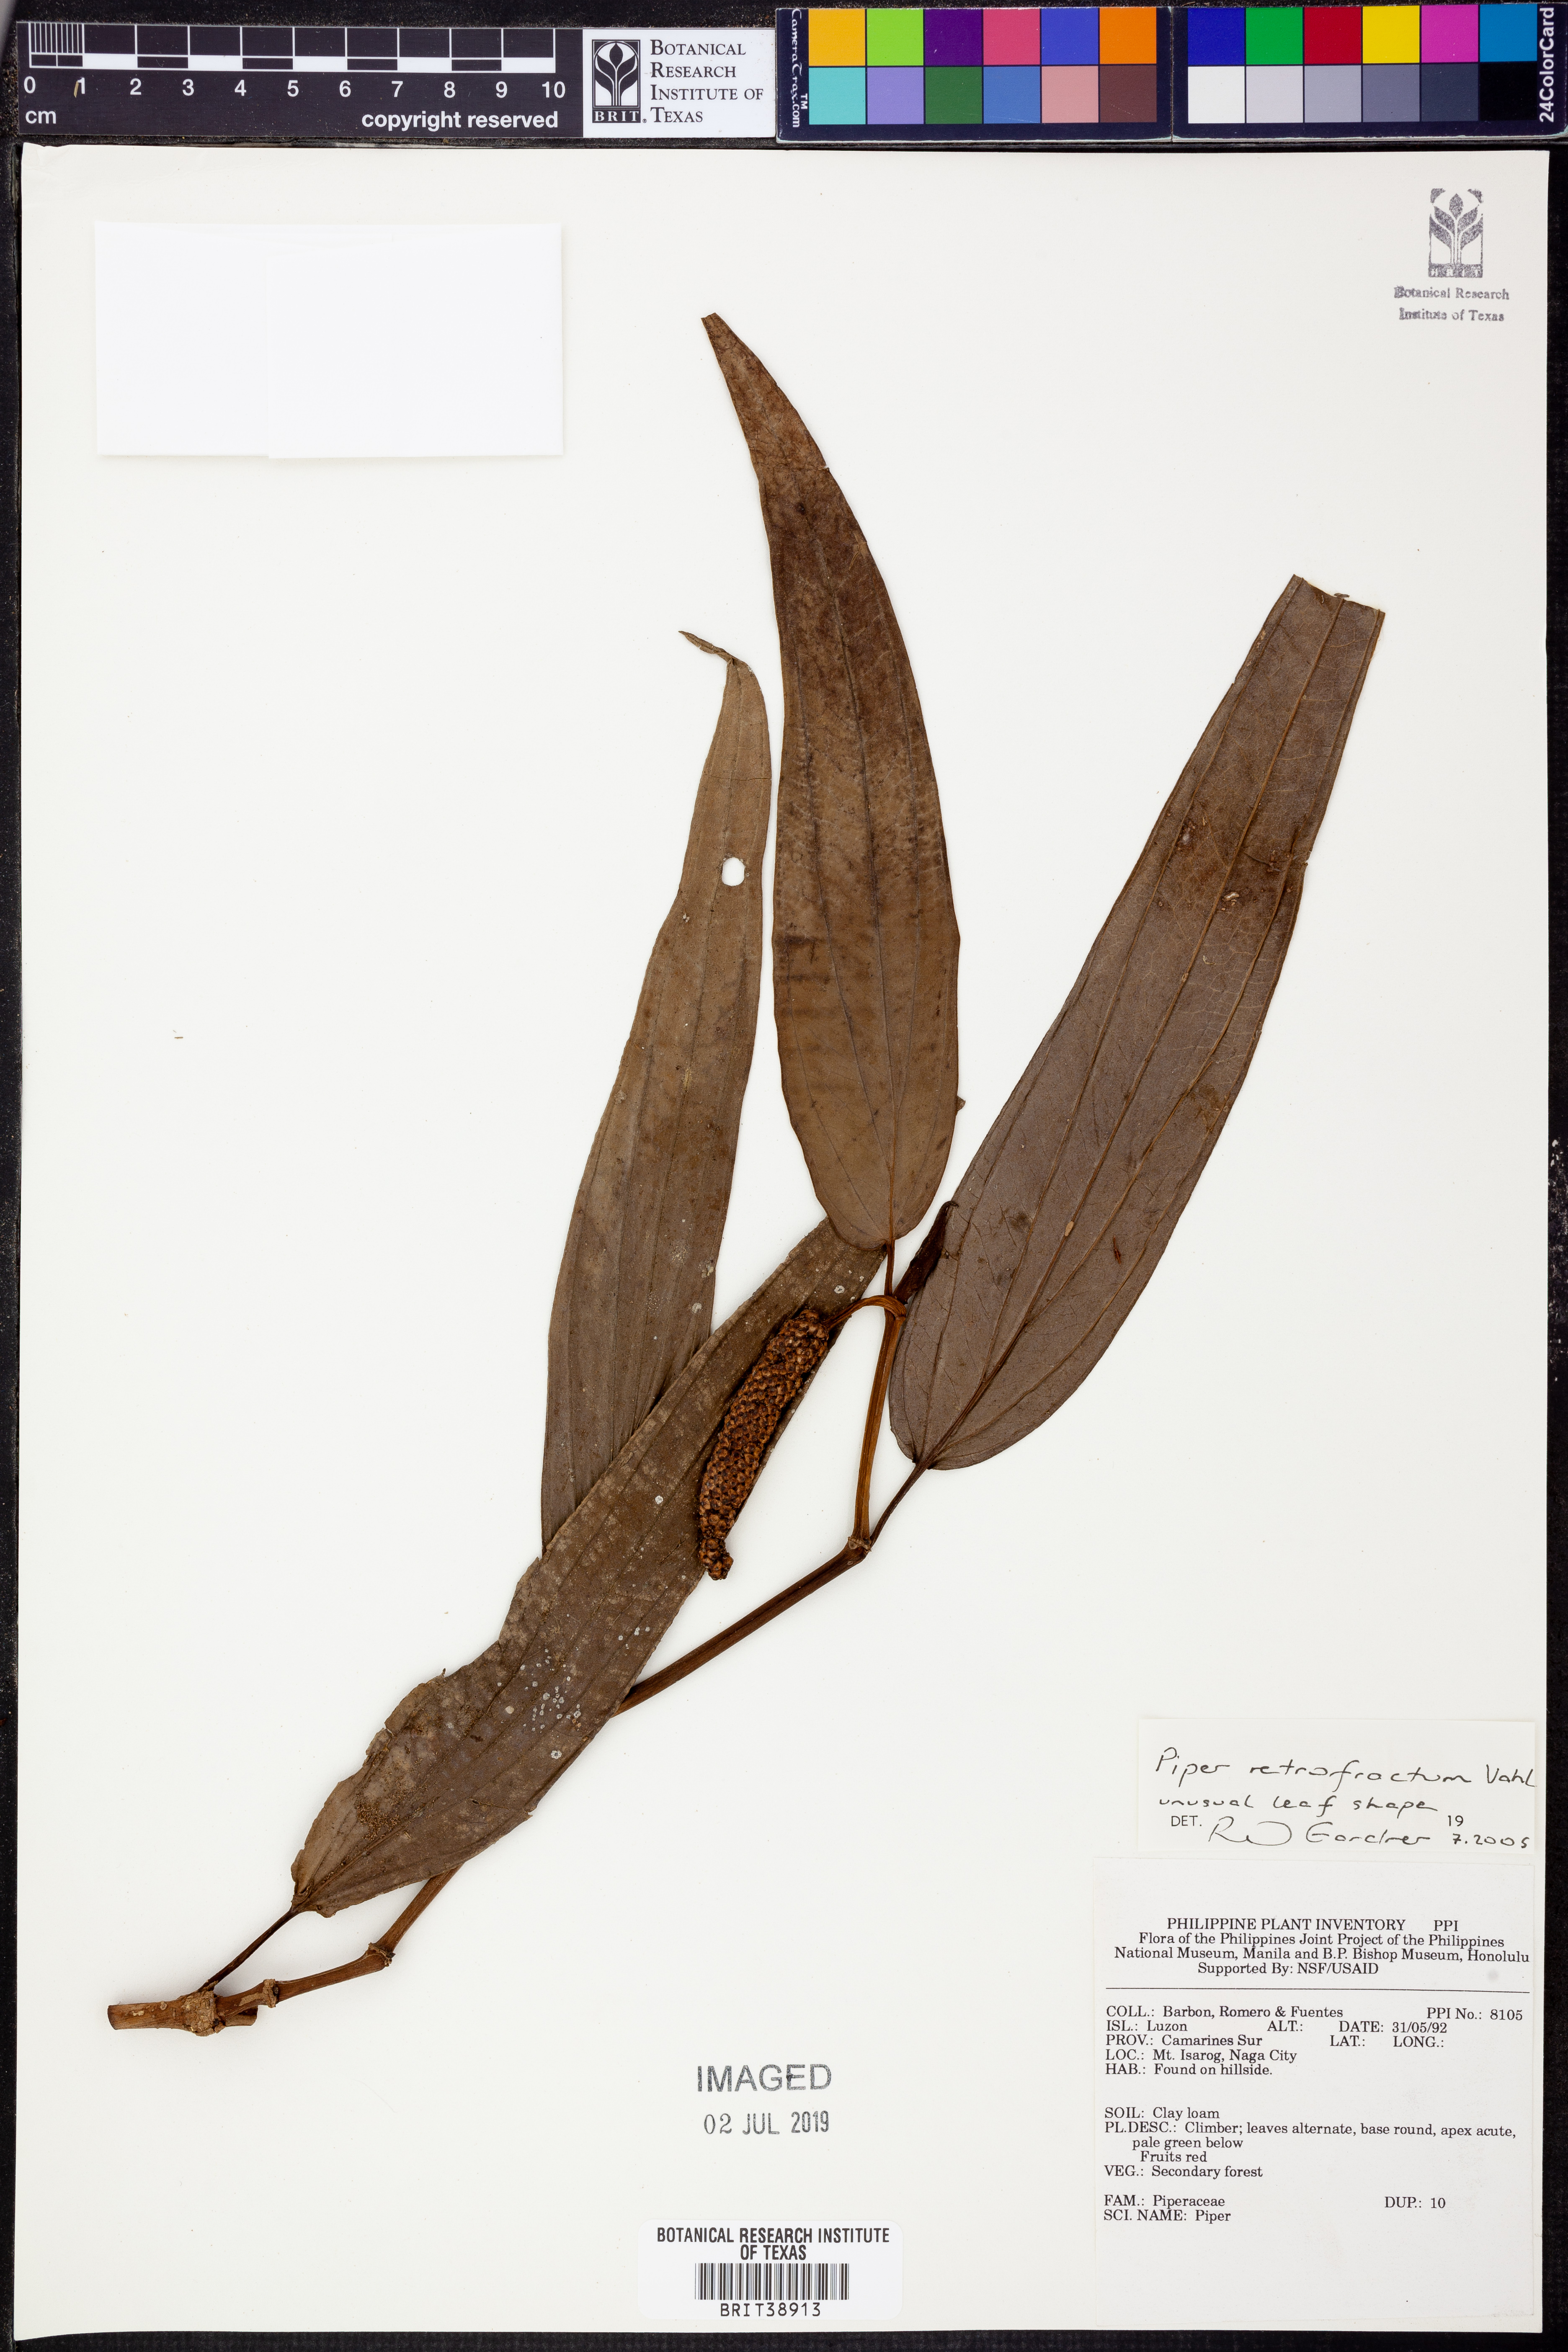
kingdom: Plantae
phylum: Tracheophyta
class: Magnoliopsida
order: Piperales
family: Piperaceae
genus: Piper
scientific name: Piper retrofractum
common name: Javanese long pepper
